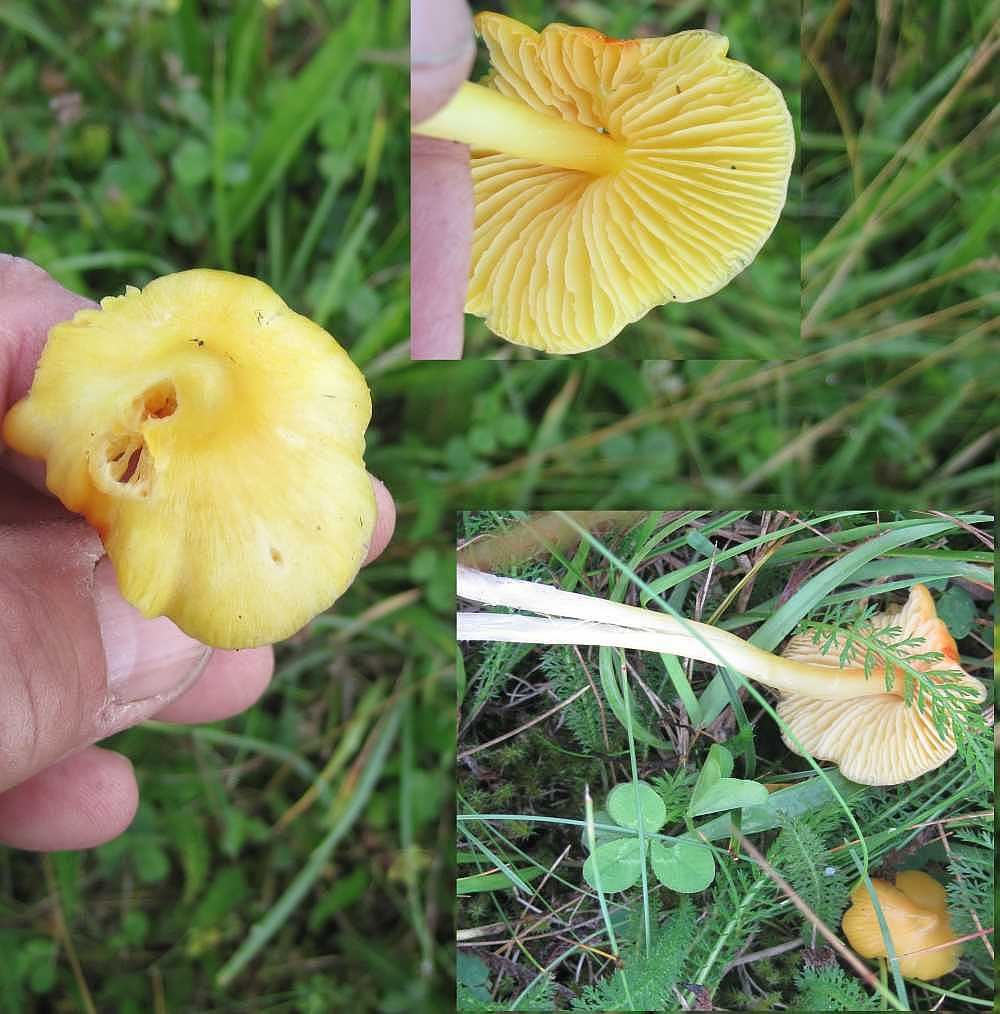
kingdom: Fungi
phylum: Basidiomycota
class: Agaricomycetes
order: Agaricales
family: Hygrophoraceae
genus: Hygrocybe
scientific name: Hygrocybe acutoconica
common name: spidspuklet vokshat
